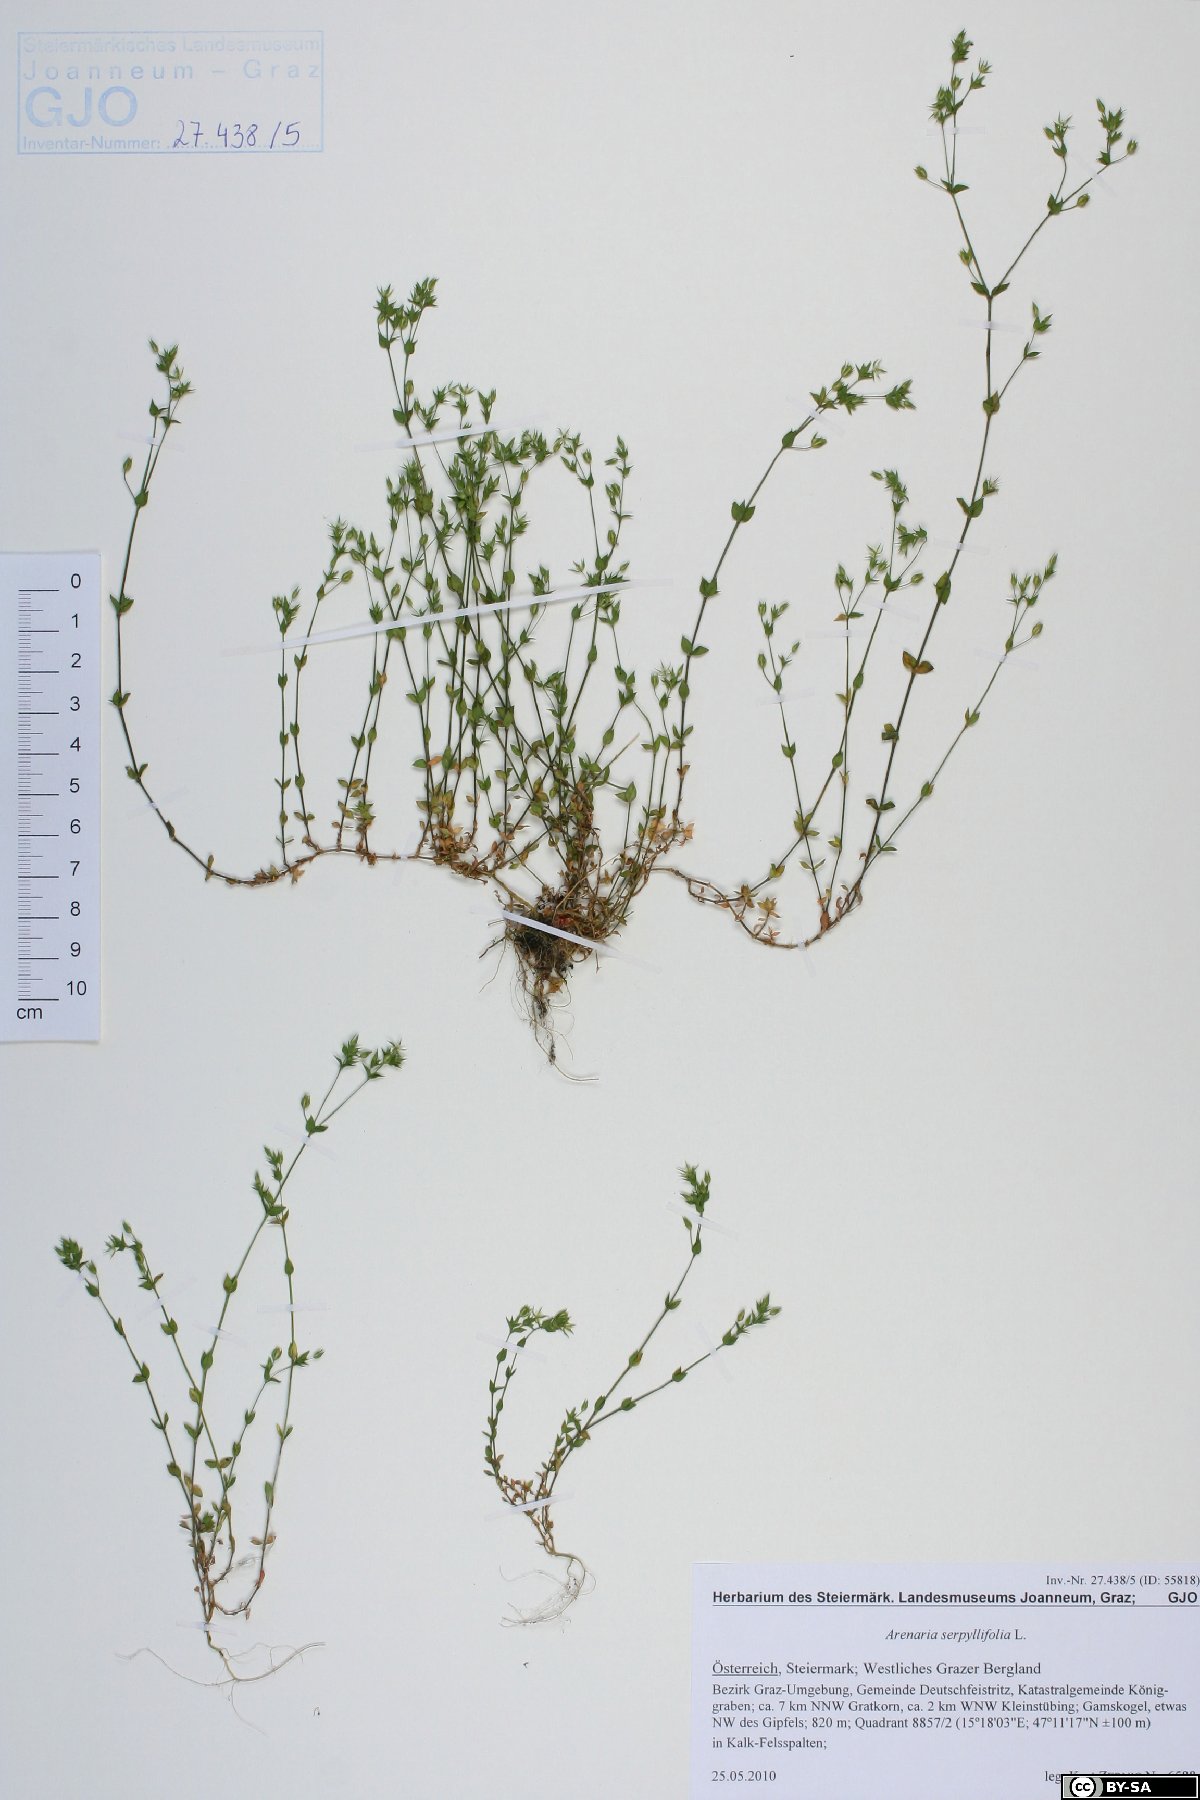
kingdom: Plantae
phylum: Tracheophyta
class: Magnoliopsida
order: Caryophyllales
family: Caryophyllaceae
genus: Arenaria
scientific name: Arenaria serpyllifolia
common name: Thyme-leaved sandwort
